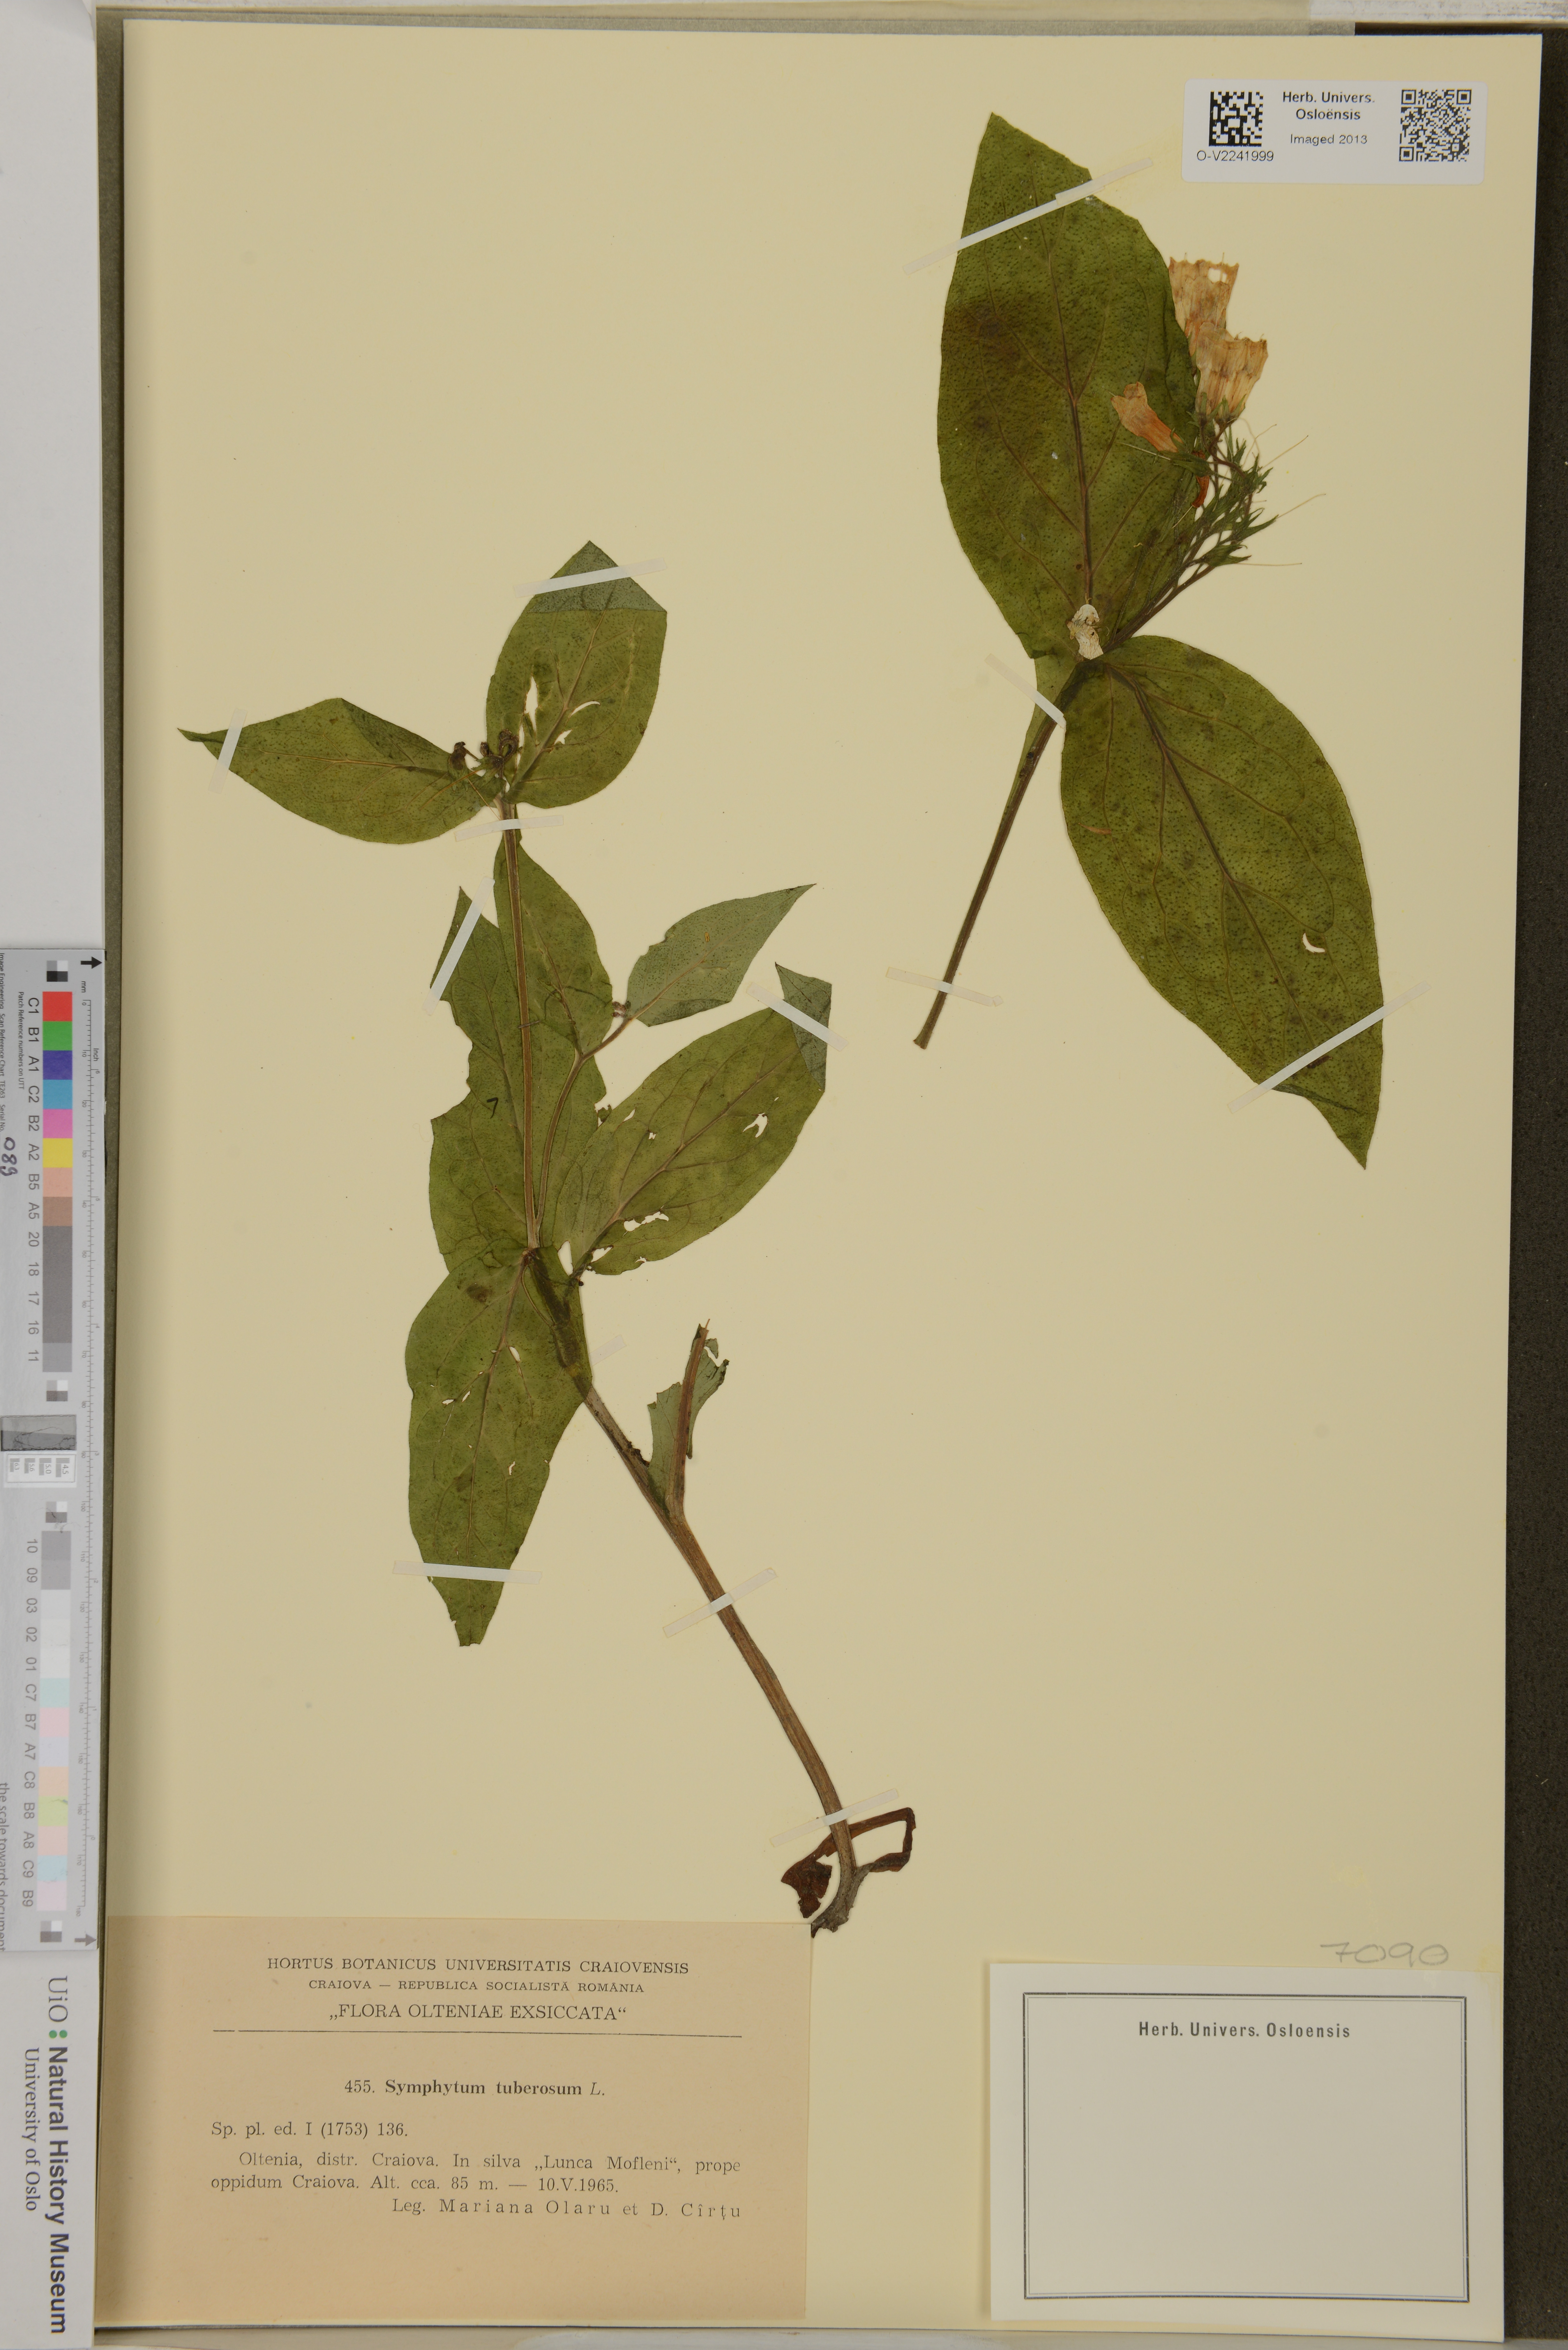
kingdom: Plantae
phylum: Tracheophyta
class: Magnoliopsida
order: Boraginales
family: Boraginaceae
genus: Symphytum
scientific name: Symphytum tuberosum
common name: Tuberous comfrey
